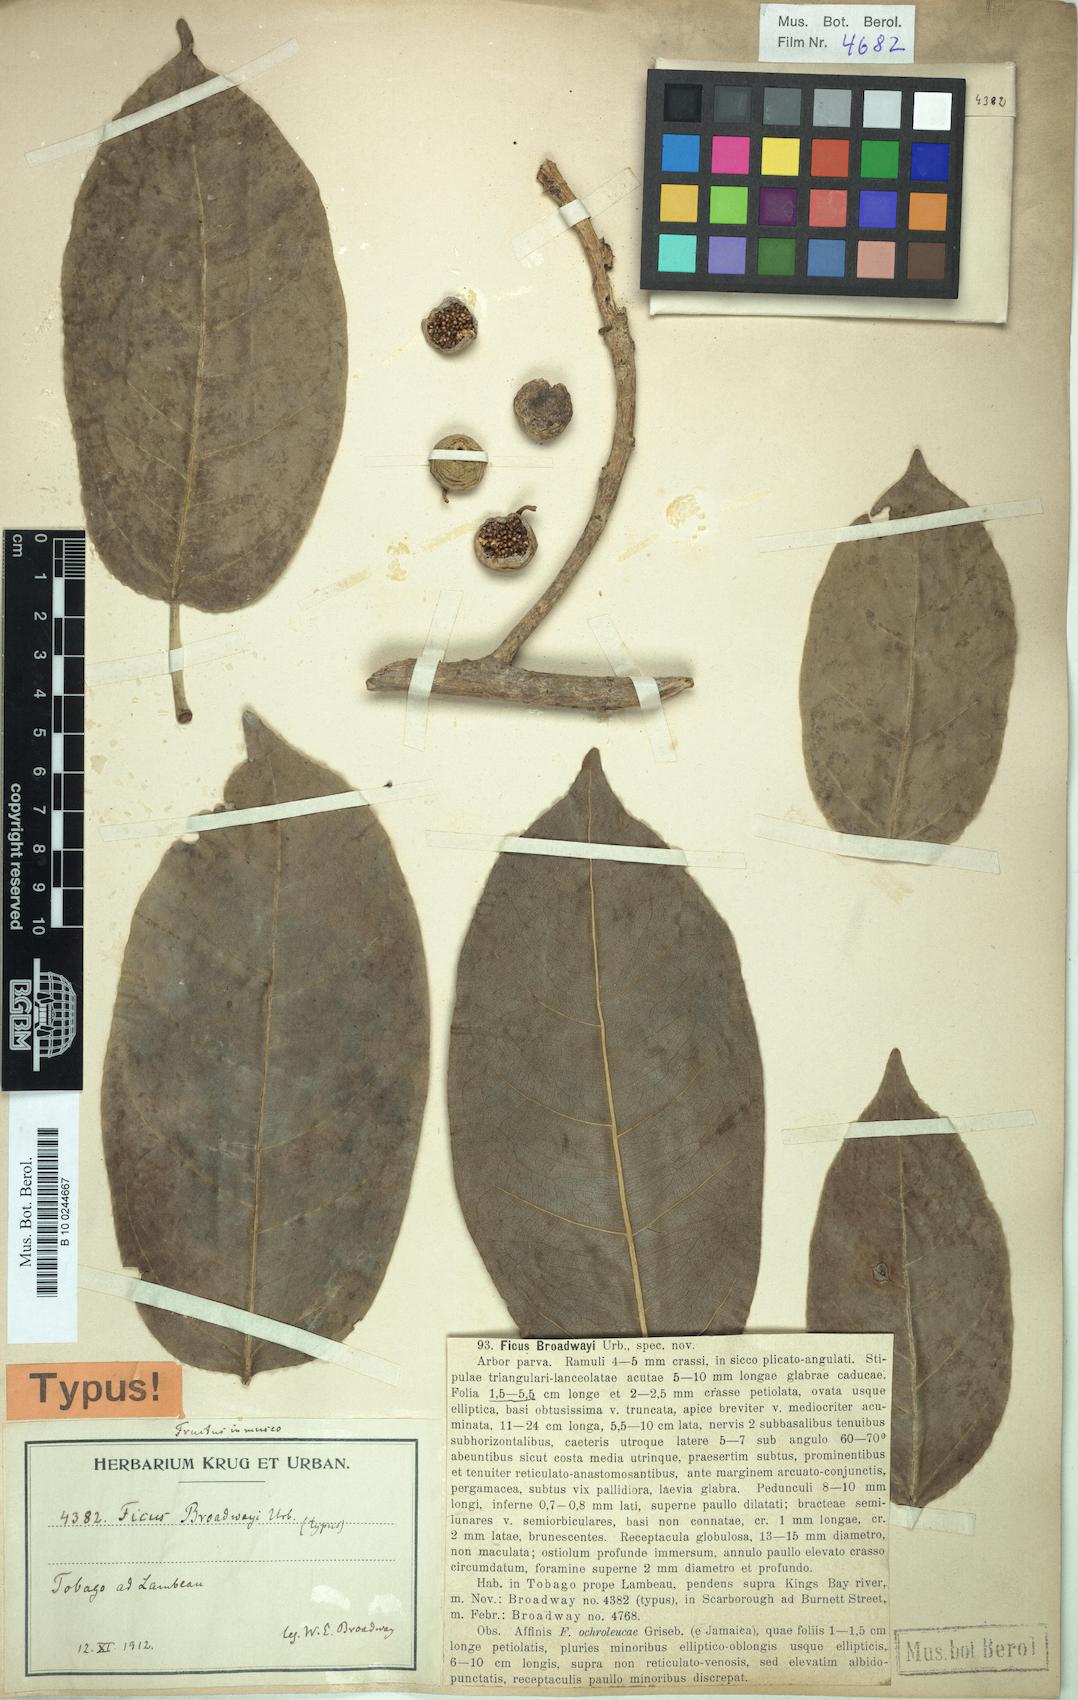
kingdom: Plantae
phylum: Tracheophyta
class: Magnoliopsida
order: Rosales
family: Moraceae
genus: Ficus
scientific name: Ficus broadwayi
